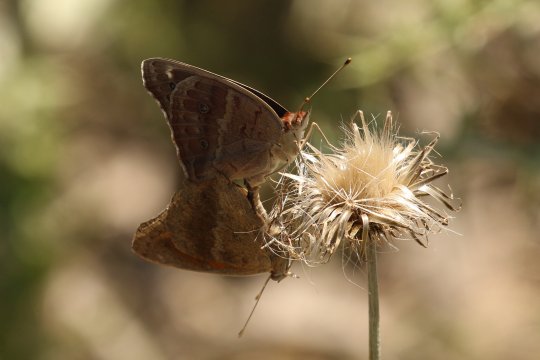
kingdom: Animalia
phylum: Arthropoda
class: Insecta
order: Lepidoptera
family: Nymphalidae
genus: Junonia
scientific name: Junonia coenia
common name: Common Buckeye
